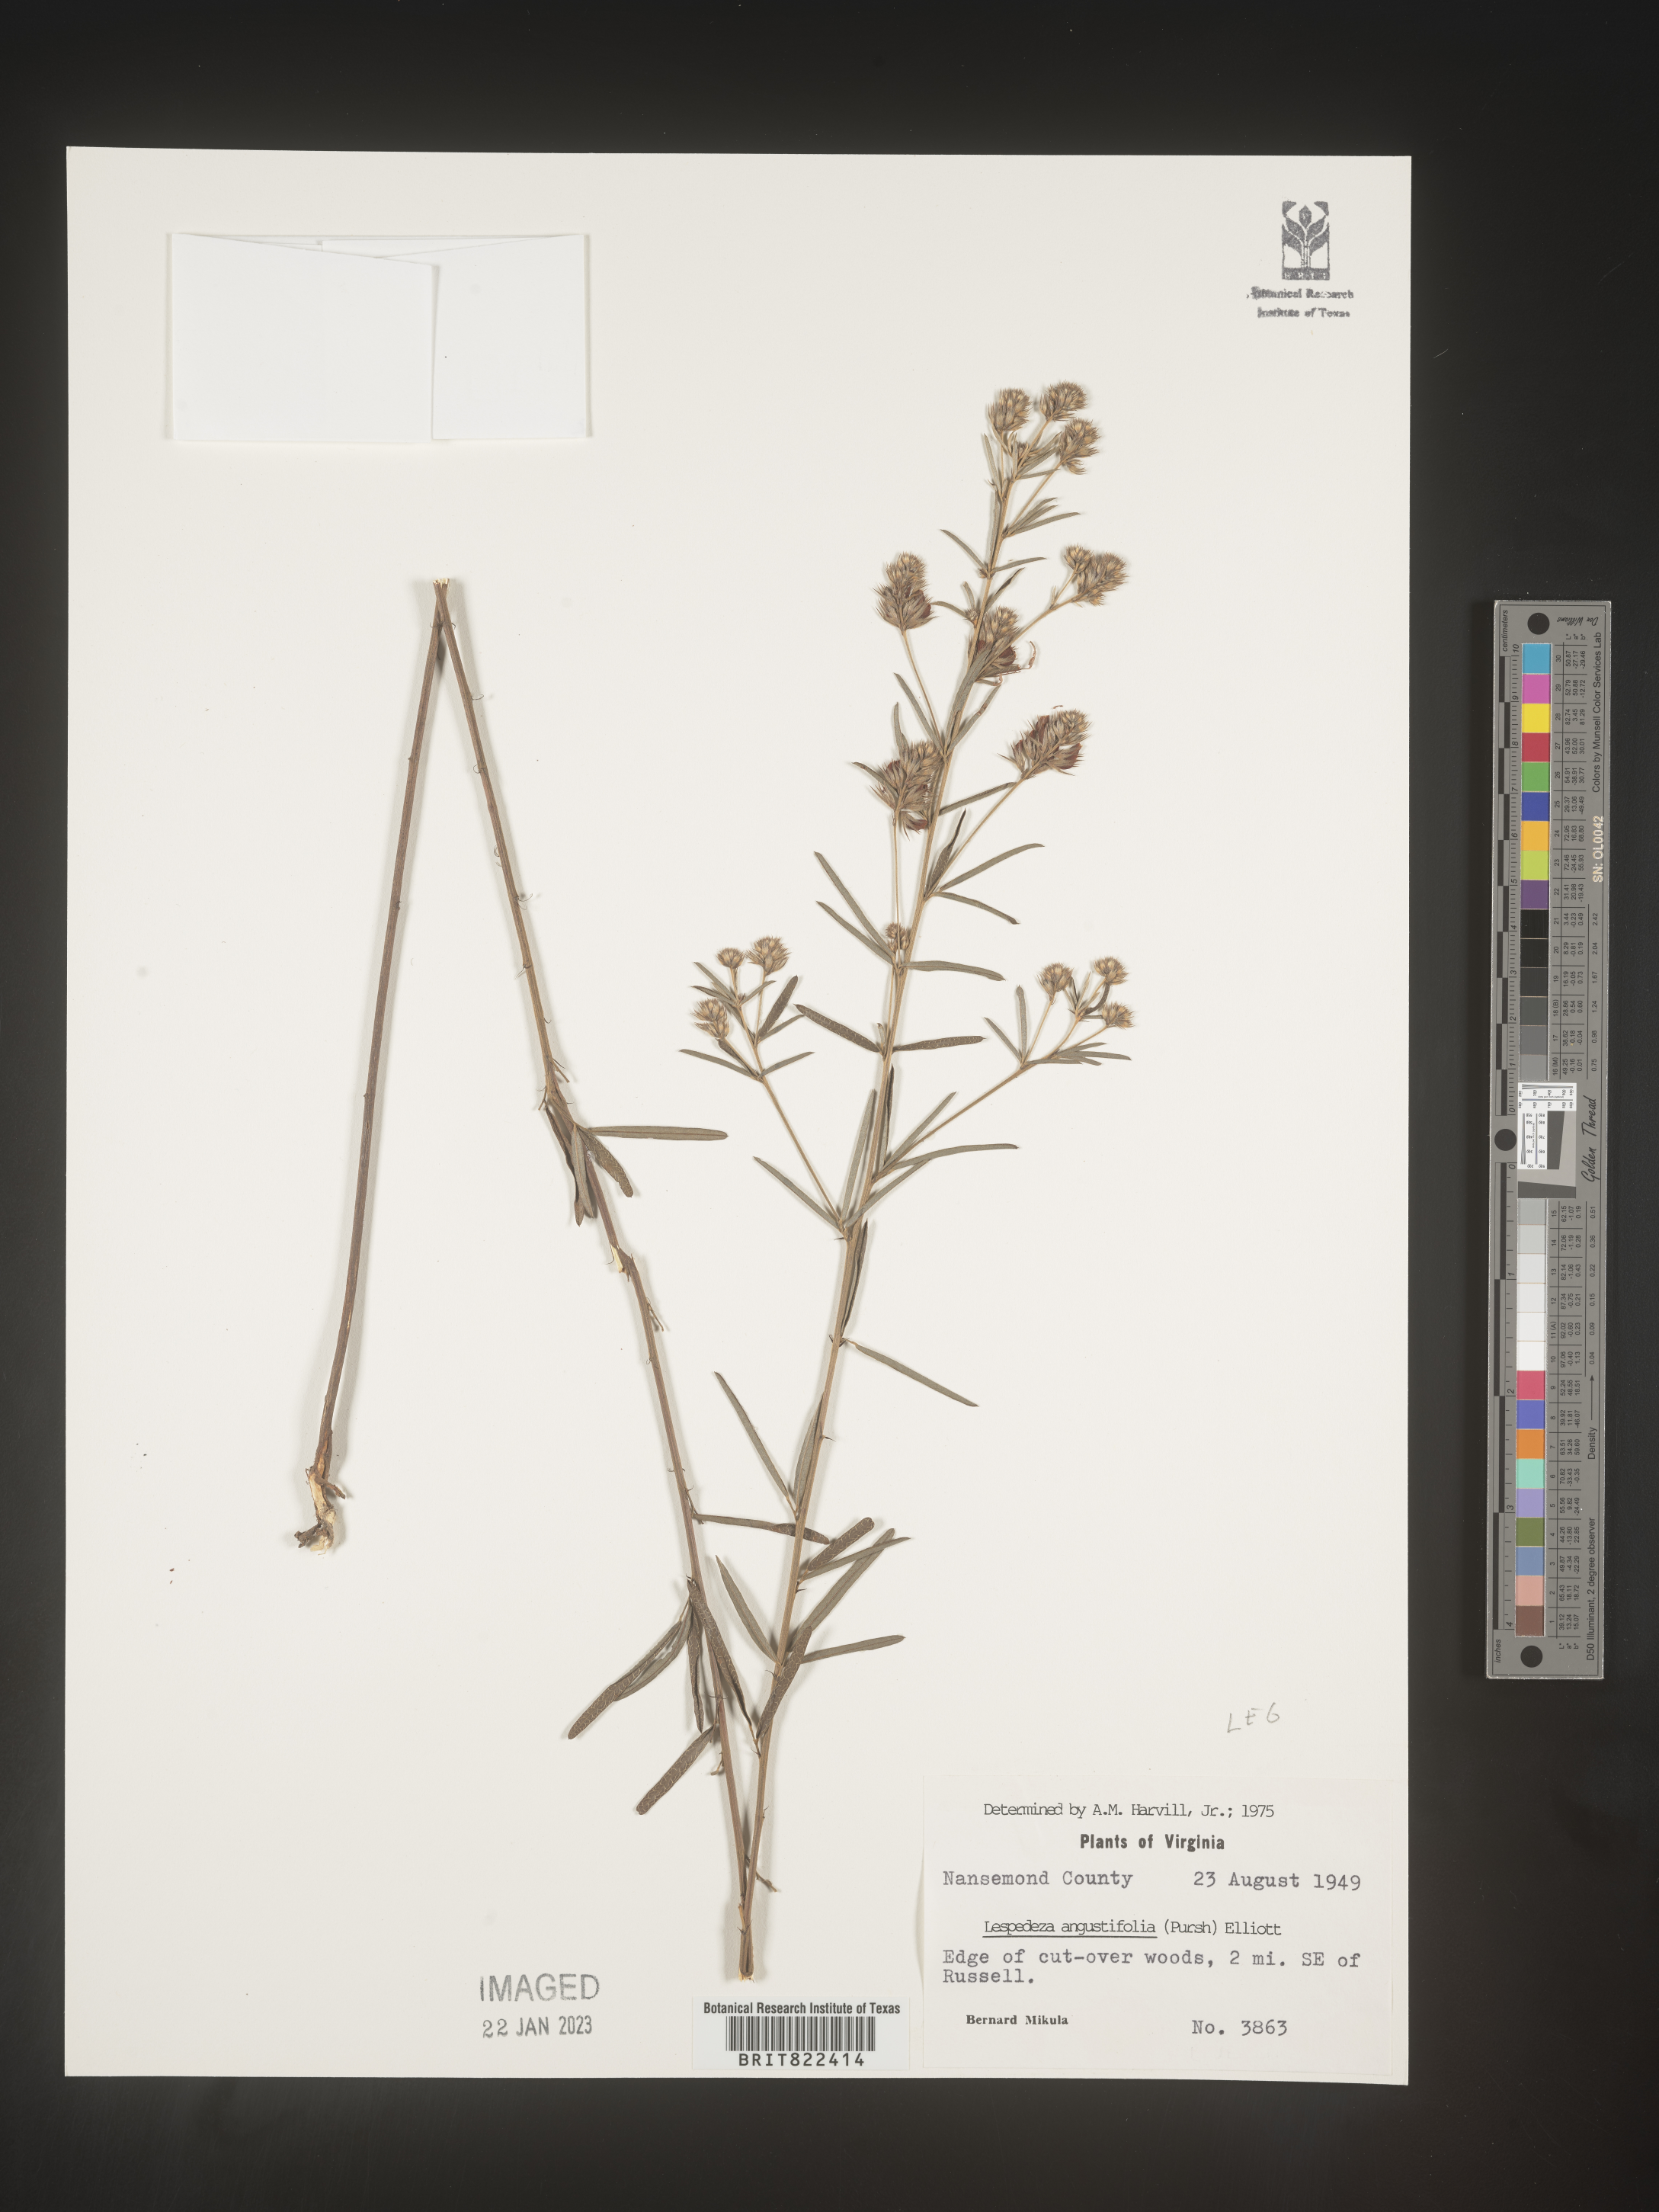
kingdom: Plantae
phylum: Tracheophyta
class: Magnoliopsida
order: Fabales
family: Fabaceae
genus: Lespedeza
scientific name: Lespedeza
